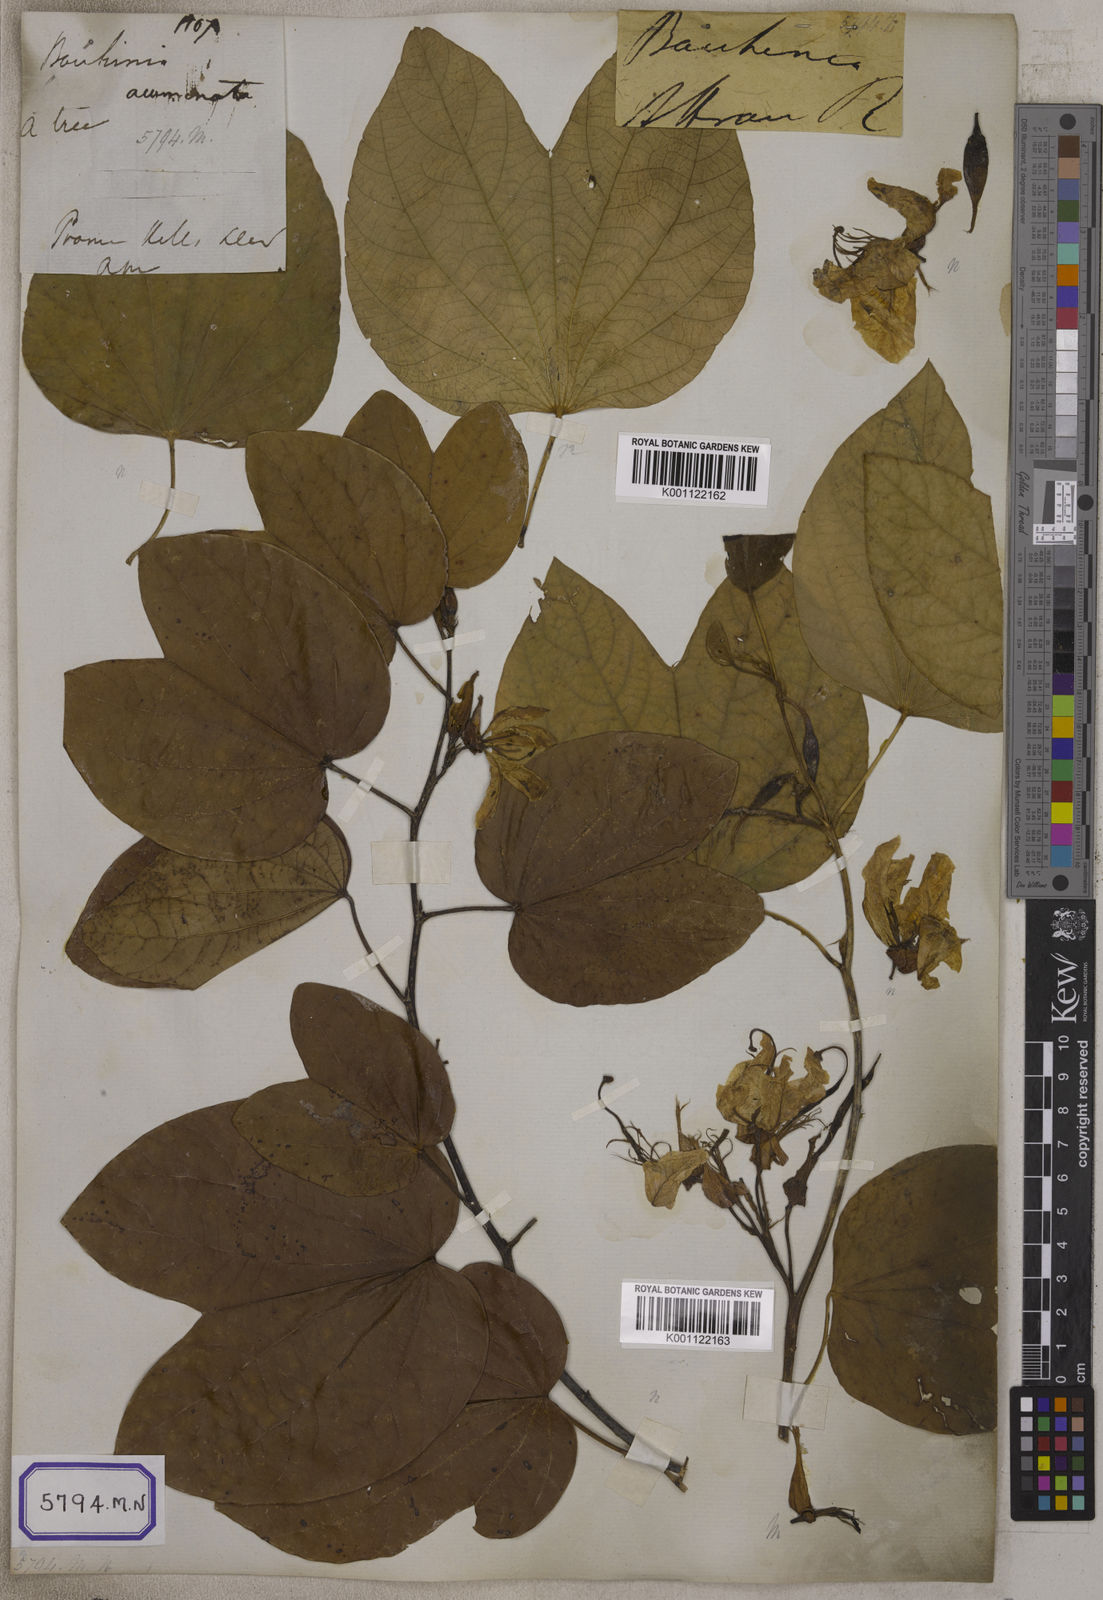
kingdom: Plantae
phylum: Tracheophyta
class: Magnoliopsida
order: Fabales
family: Fabaceae
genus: Bauhinia
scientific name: Bauhinia acuminata
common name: Dwarf white bauhinia
